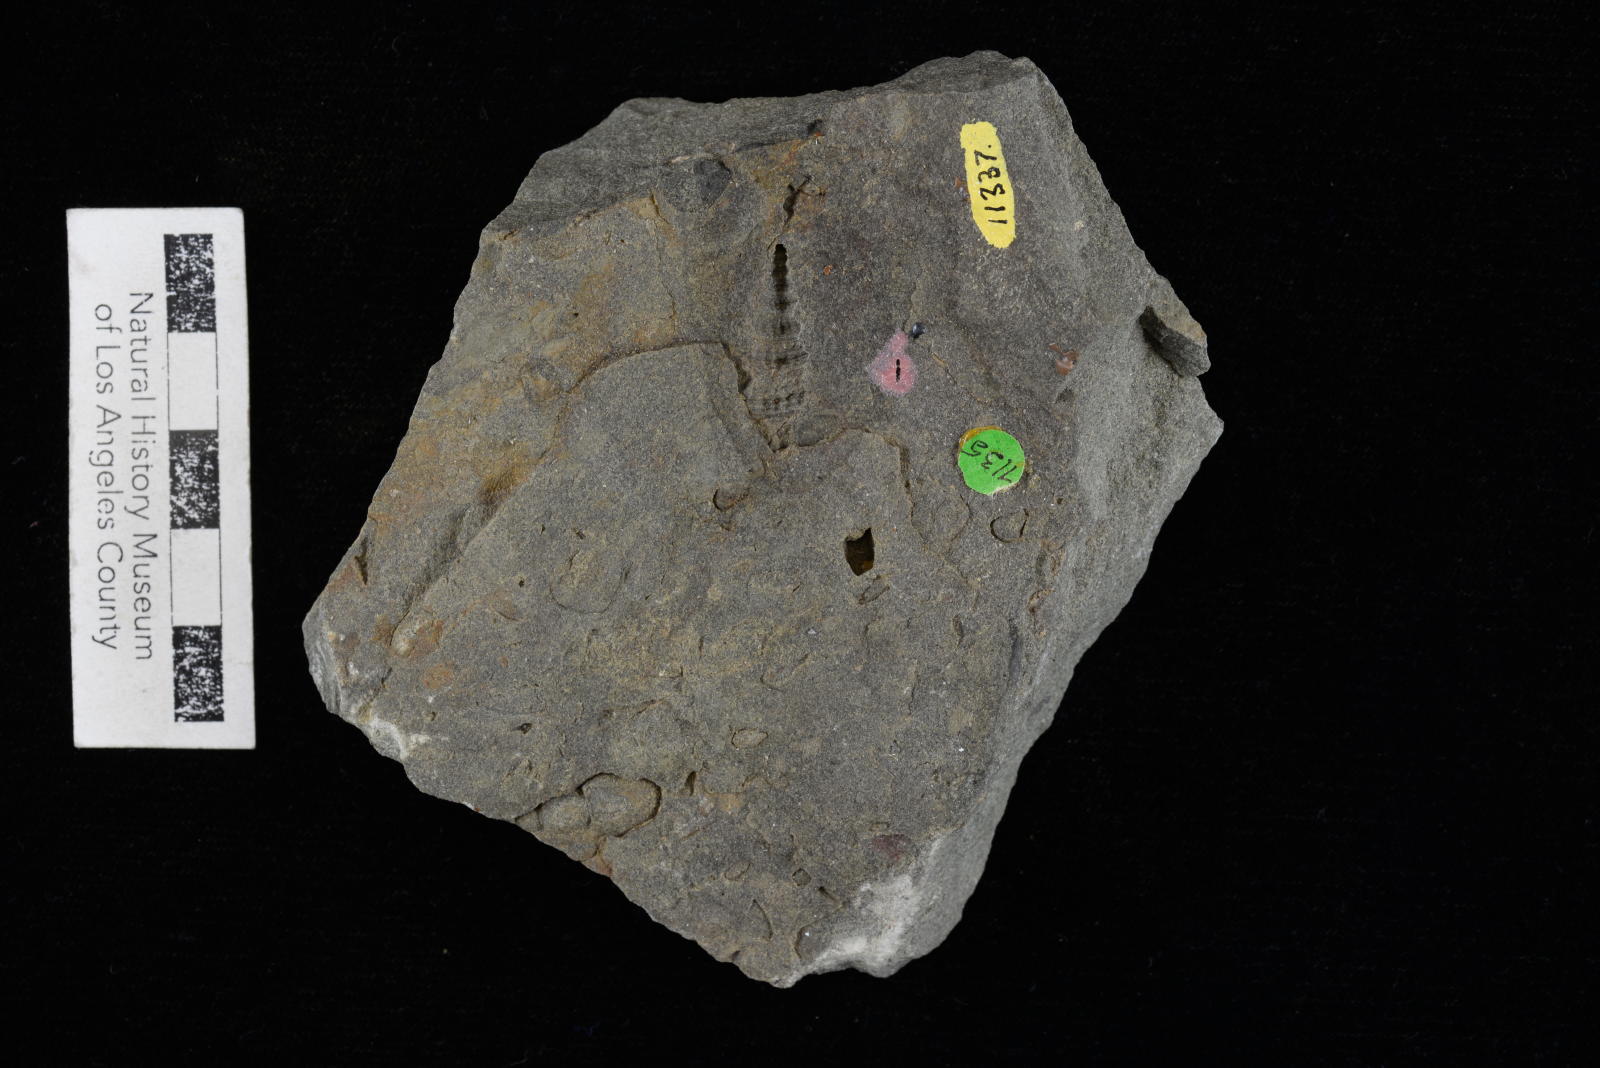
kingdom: Animalia
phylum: Mollusca
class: Gastropoda
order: Littorinimorpha
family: Aporrhaidae
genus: Anchura
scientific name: Anchura ainikta
